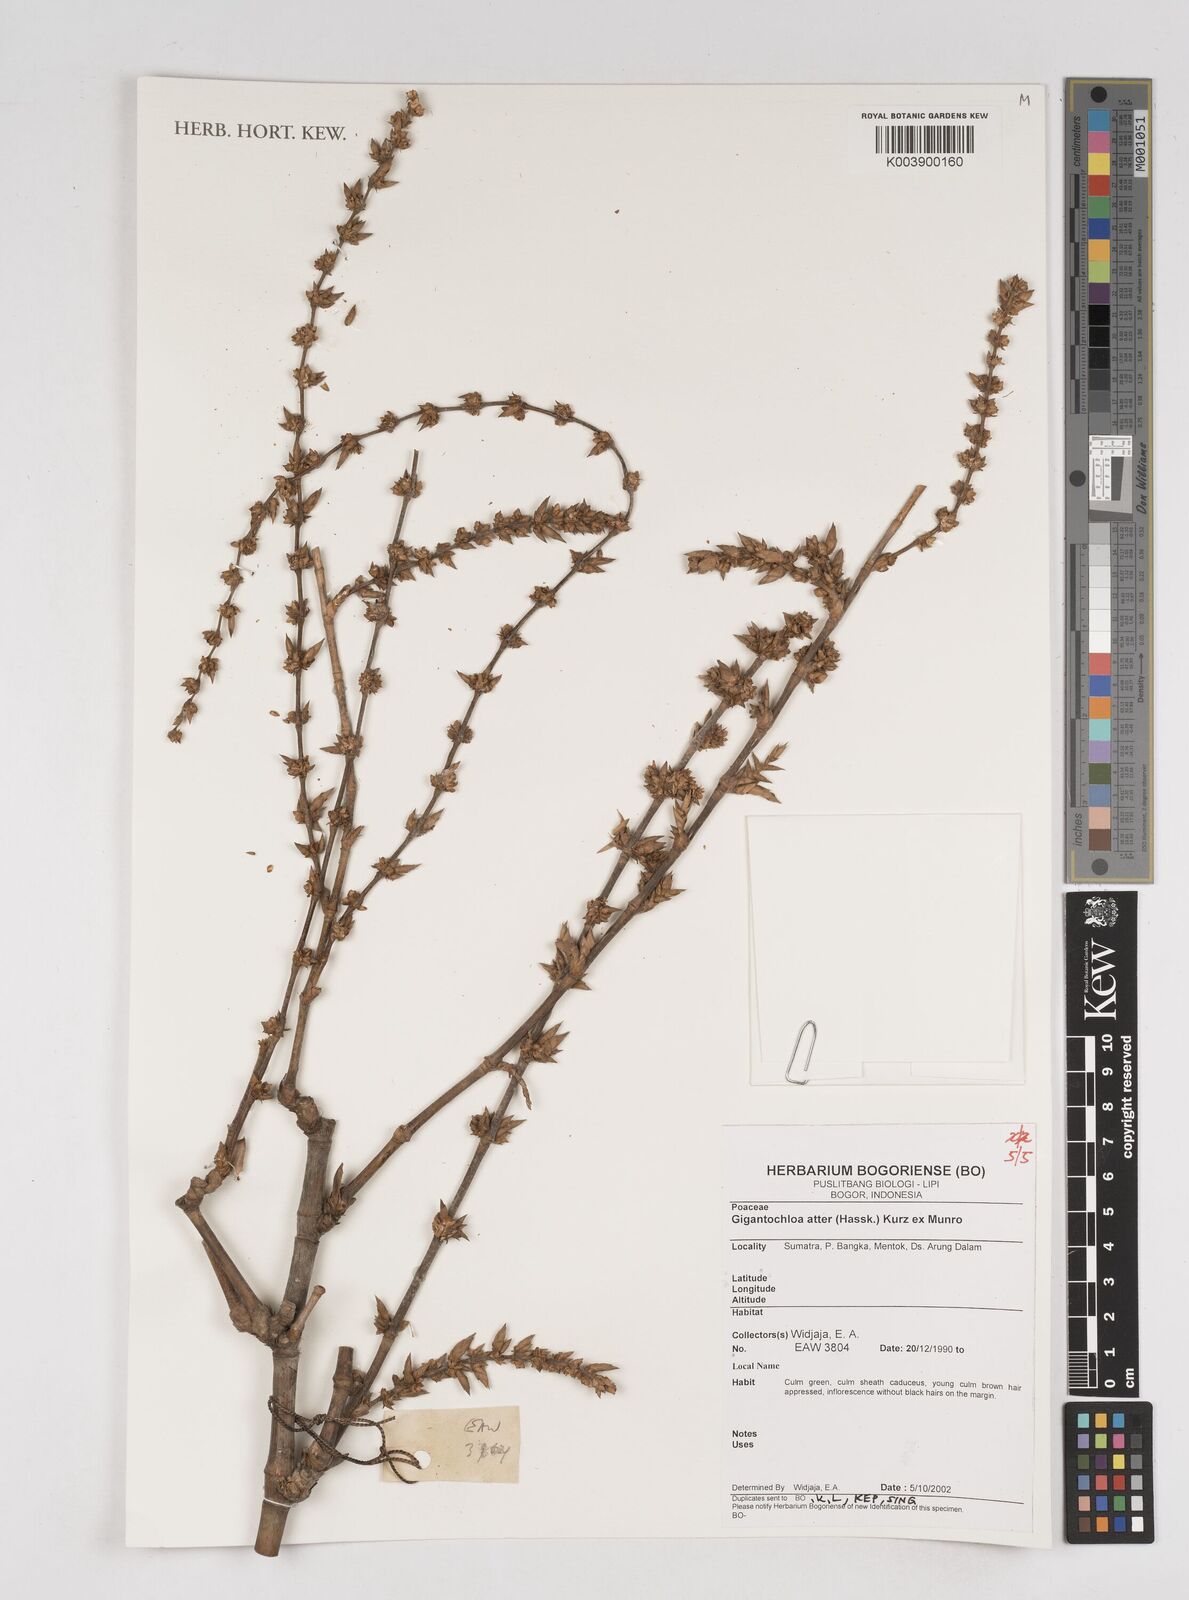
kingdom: Plantae
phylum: Tracheophyta
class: Liliopsida
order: Poales
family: Poaceae
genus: Gigantochloa
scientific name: Gigantochloa atter
